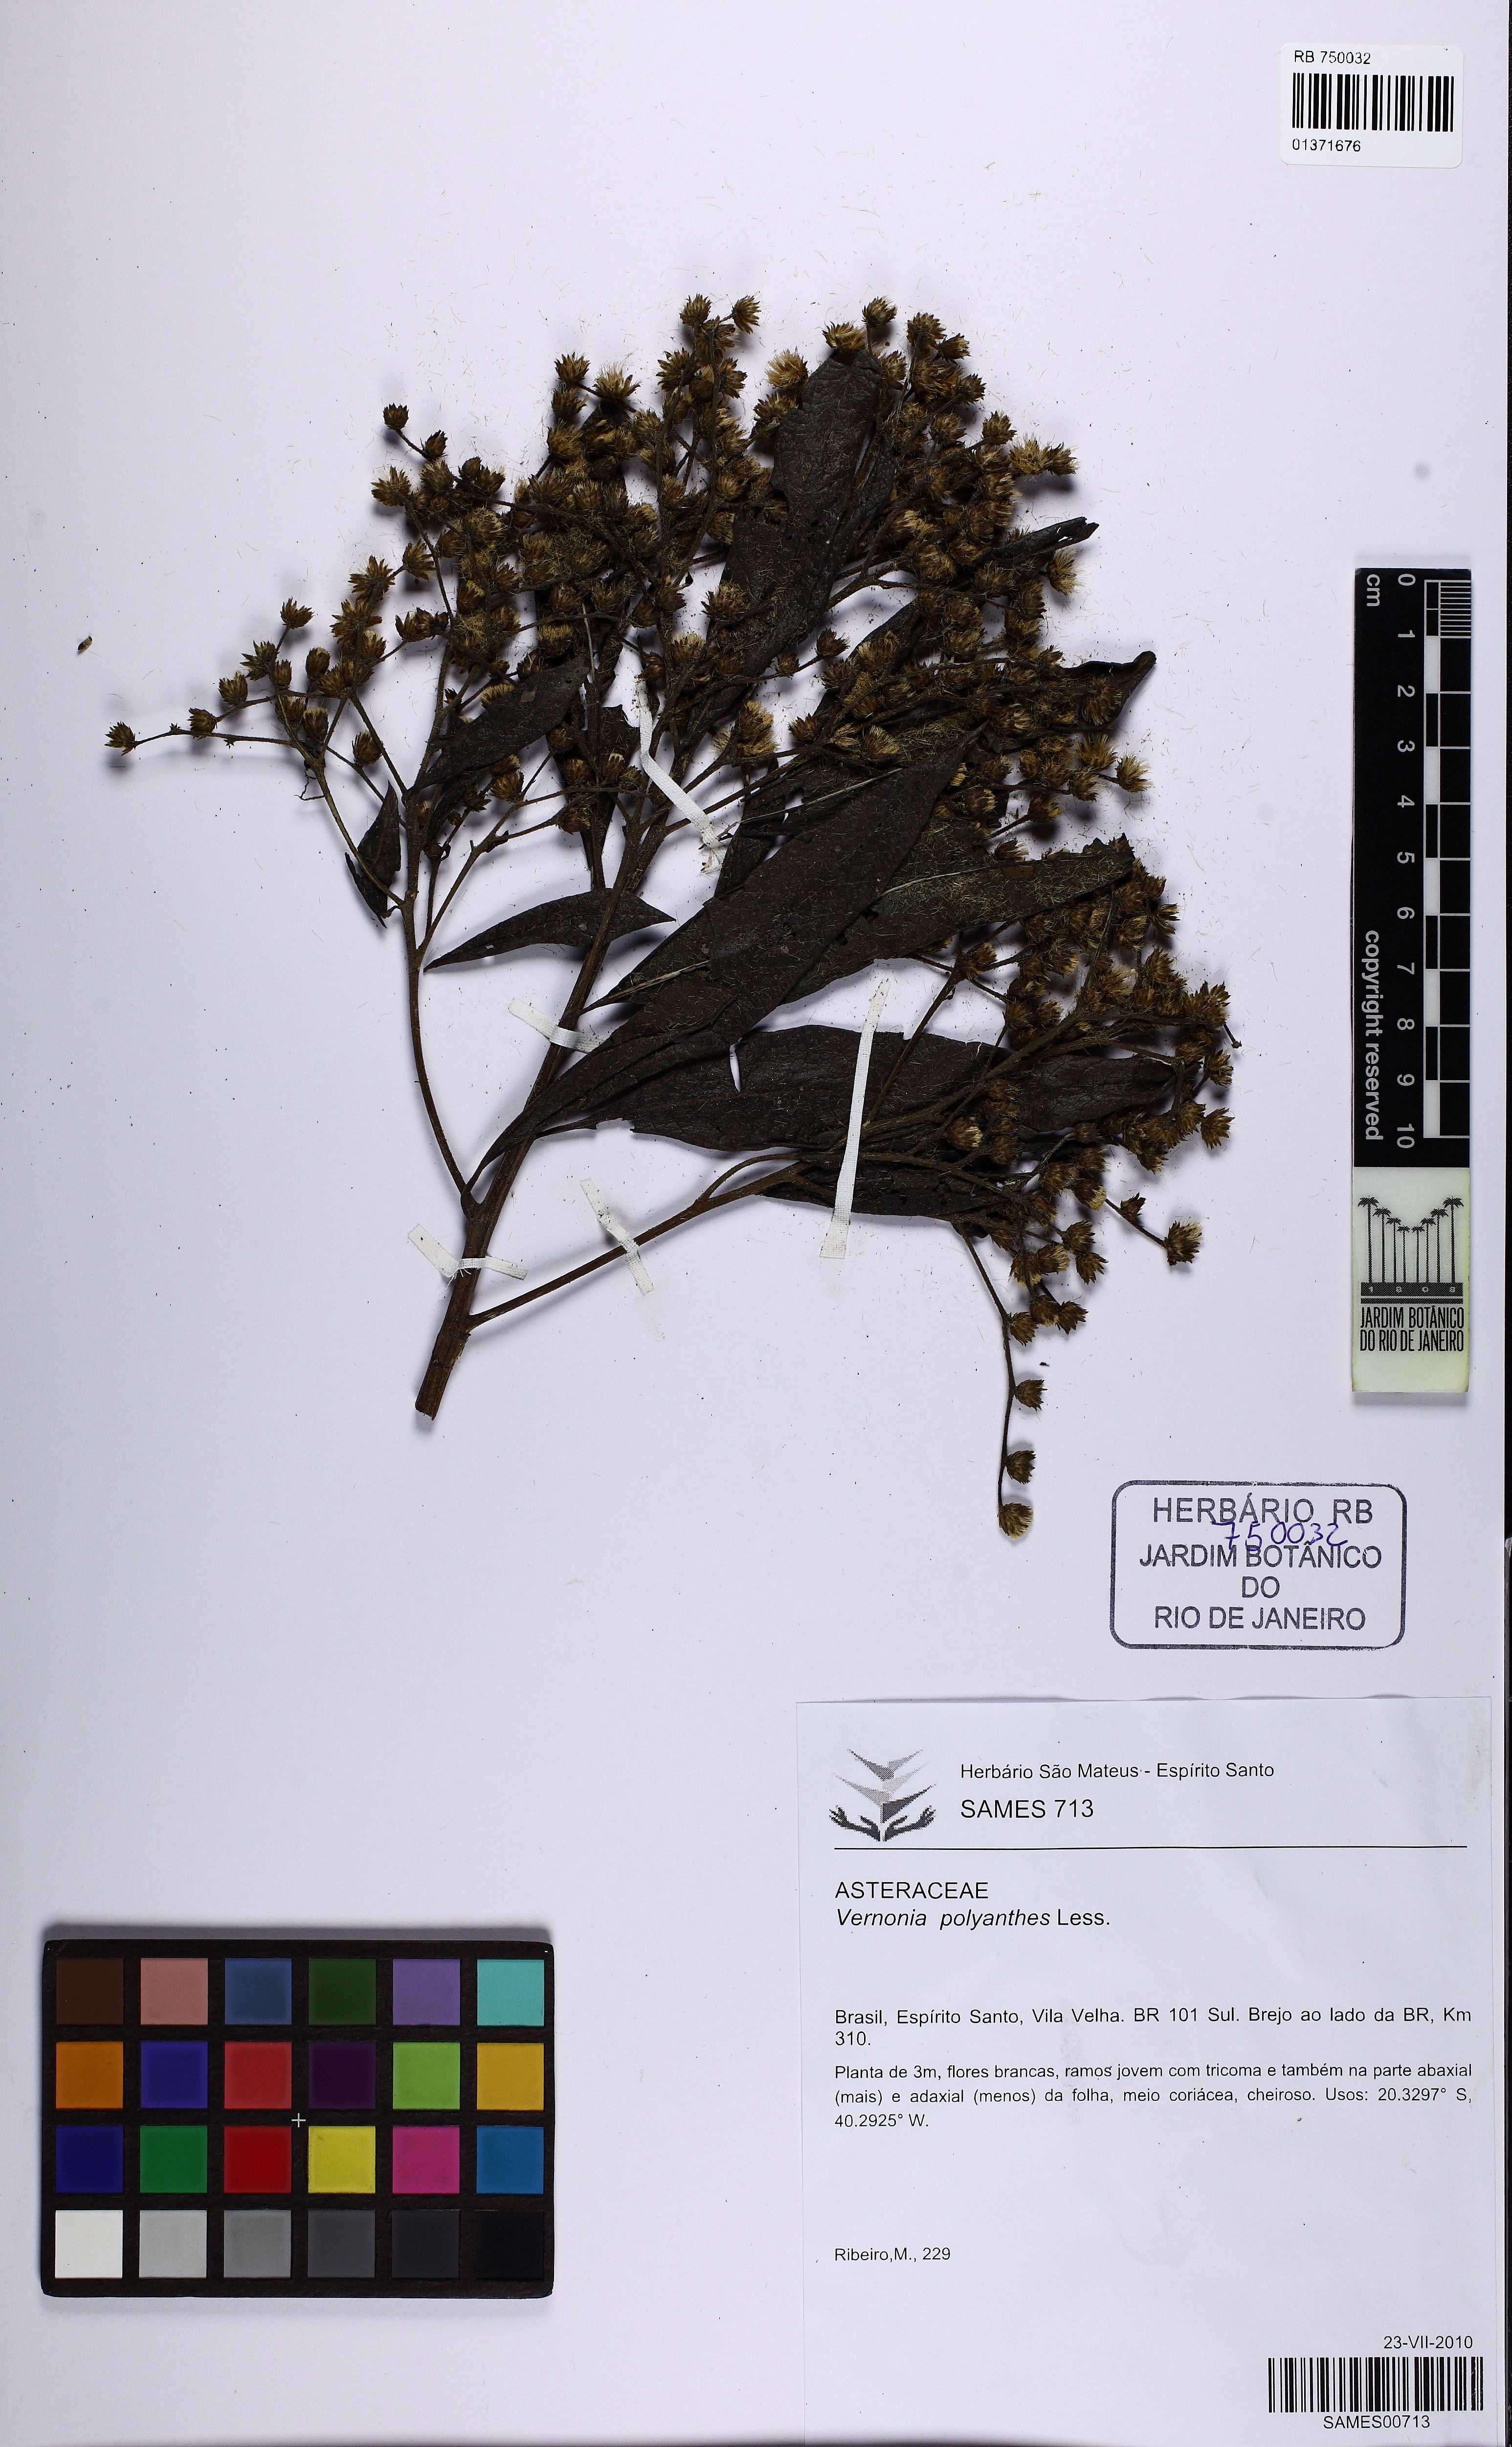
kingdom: Plantae
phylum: Tracheophyta
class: Magnoliopsida
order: Asterales
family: Asteraceae
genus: Vernonanthura
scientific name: Vernonanthura polyanthes
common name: Tree aster
